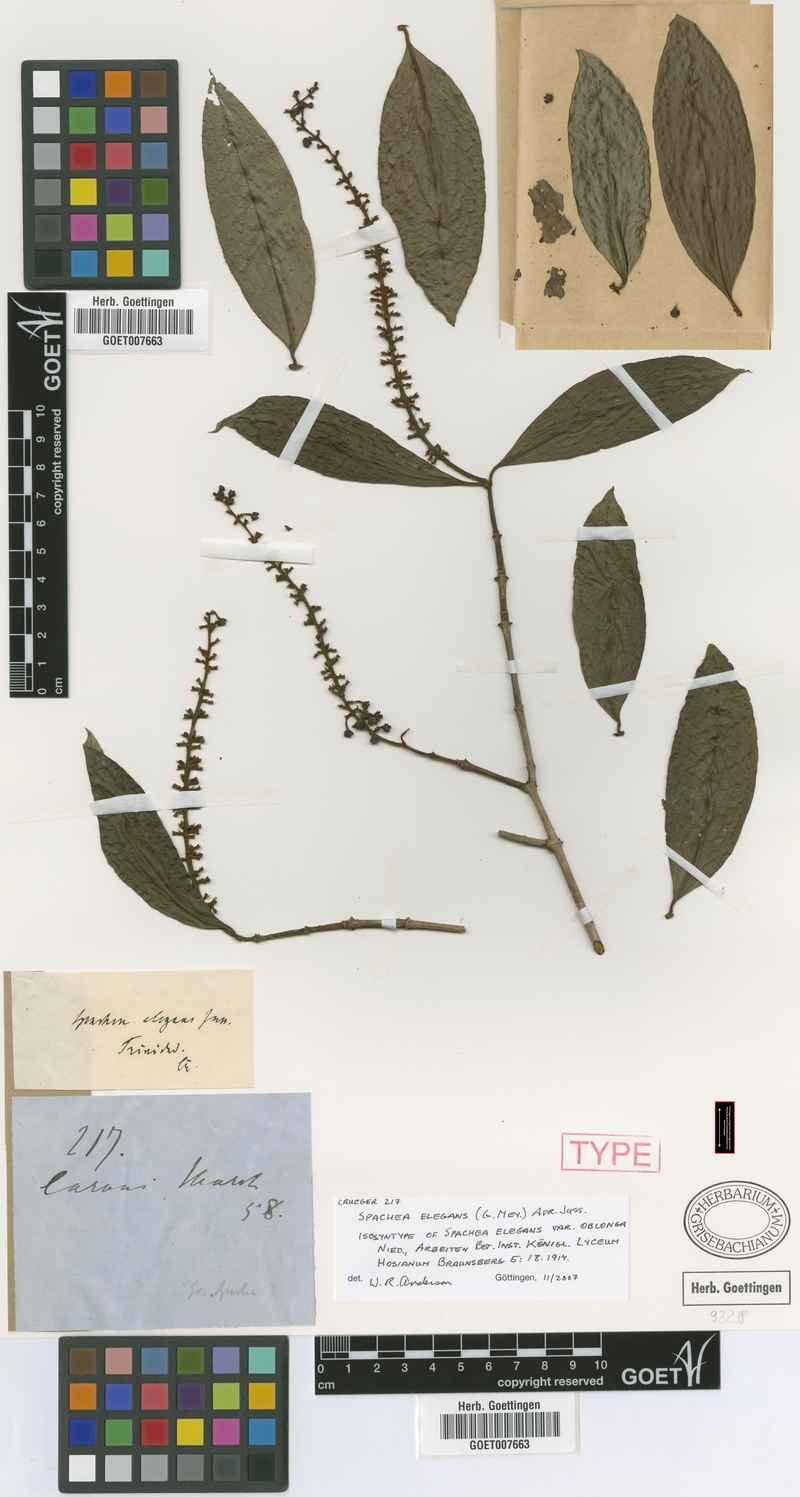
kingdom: Plantae
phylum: Tracheophyta
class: Magnoliopsida
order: Malpighiales
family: Malpighiaceae
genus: Spachea
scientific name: Spachea elegans
